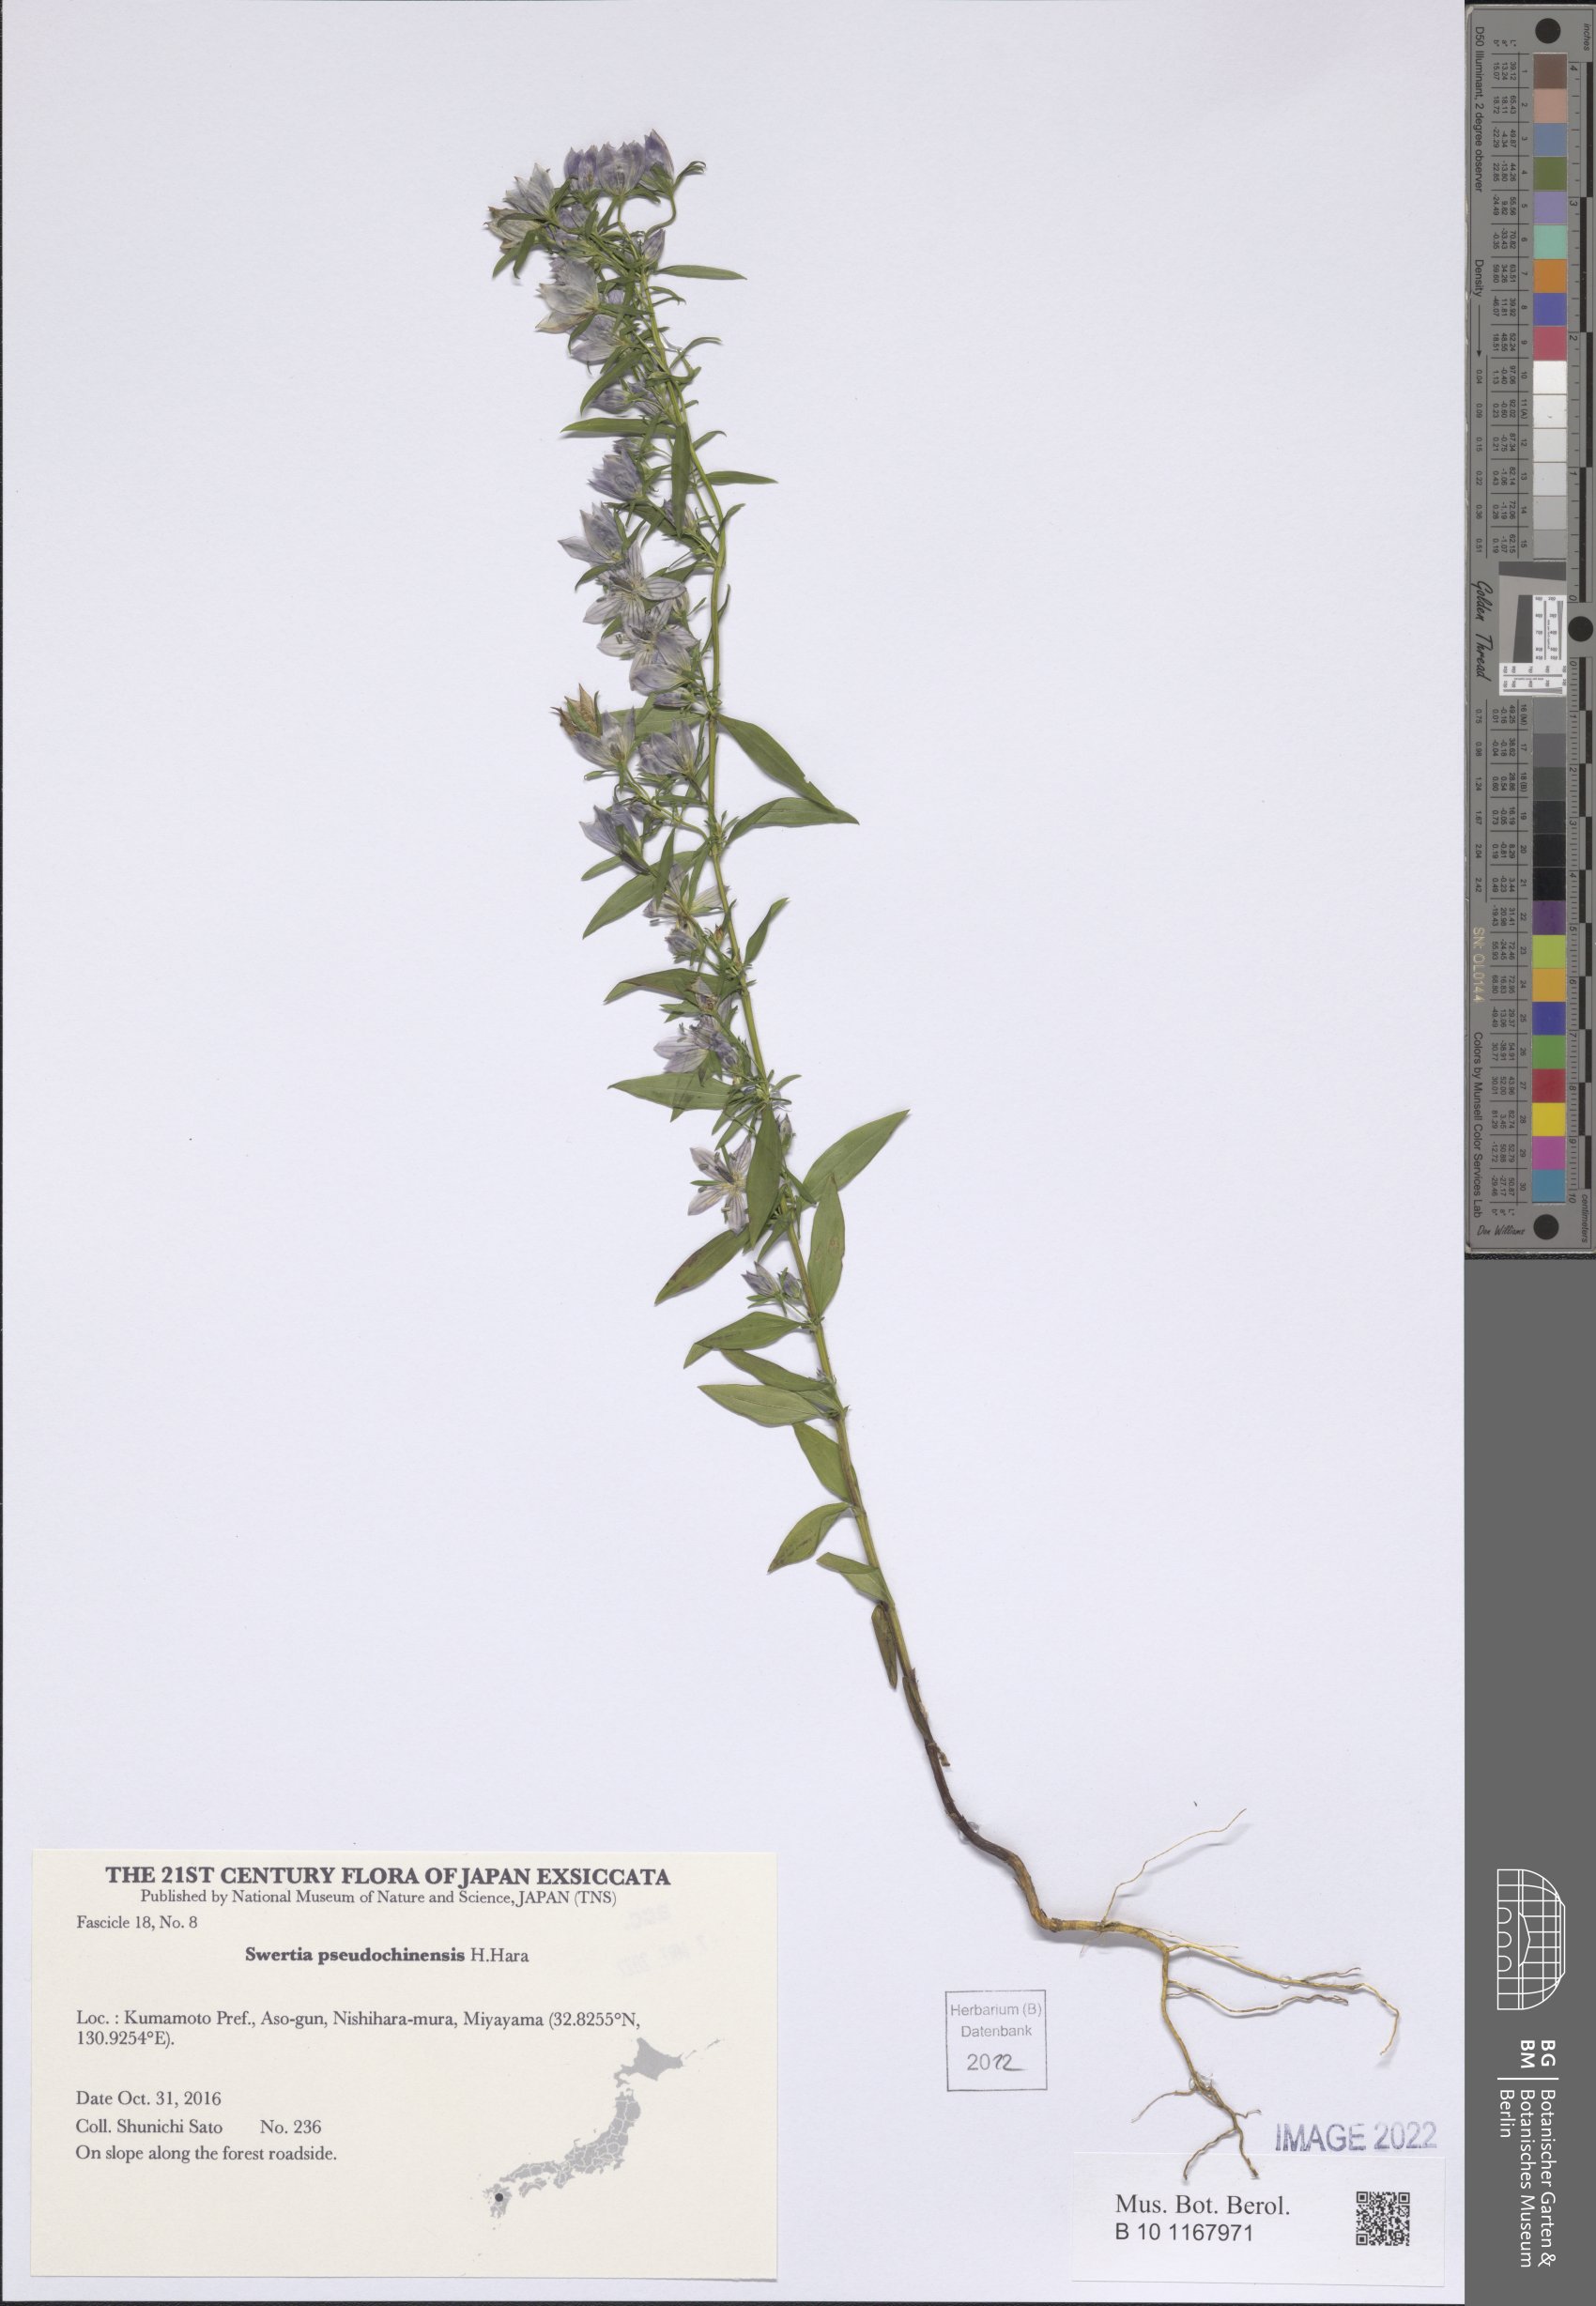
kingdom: Plantae
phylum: Tracheophyta
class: Magnoliopsida
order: Gentianales
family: Gentianaceae
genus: Swertia
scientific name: Swertia pseudochinensis
